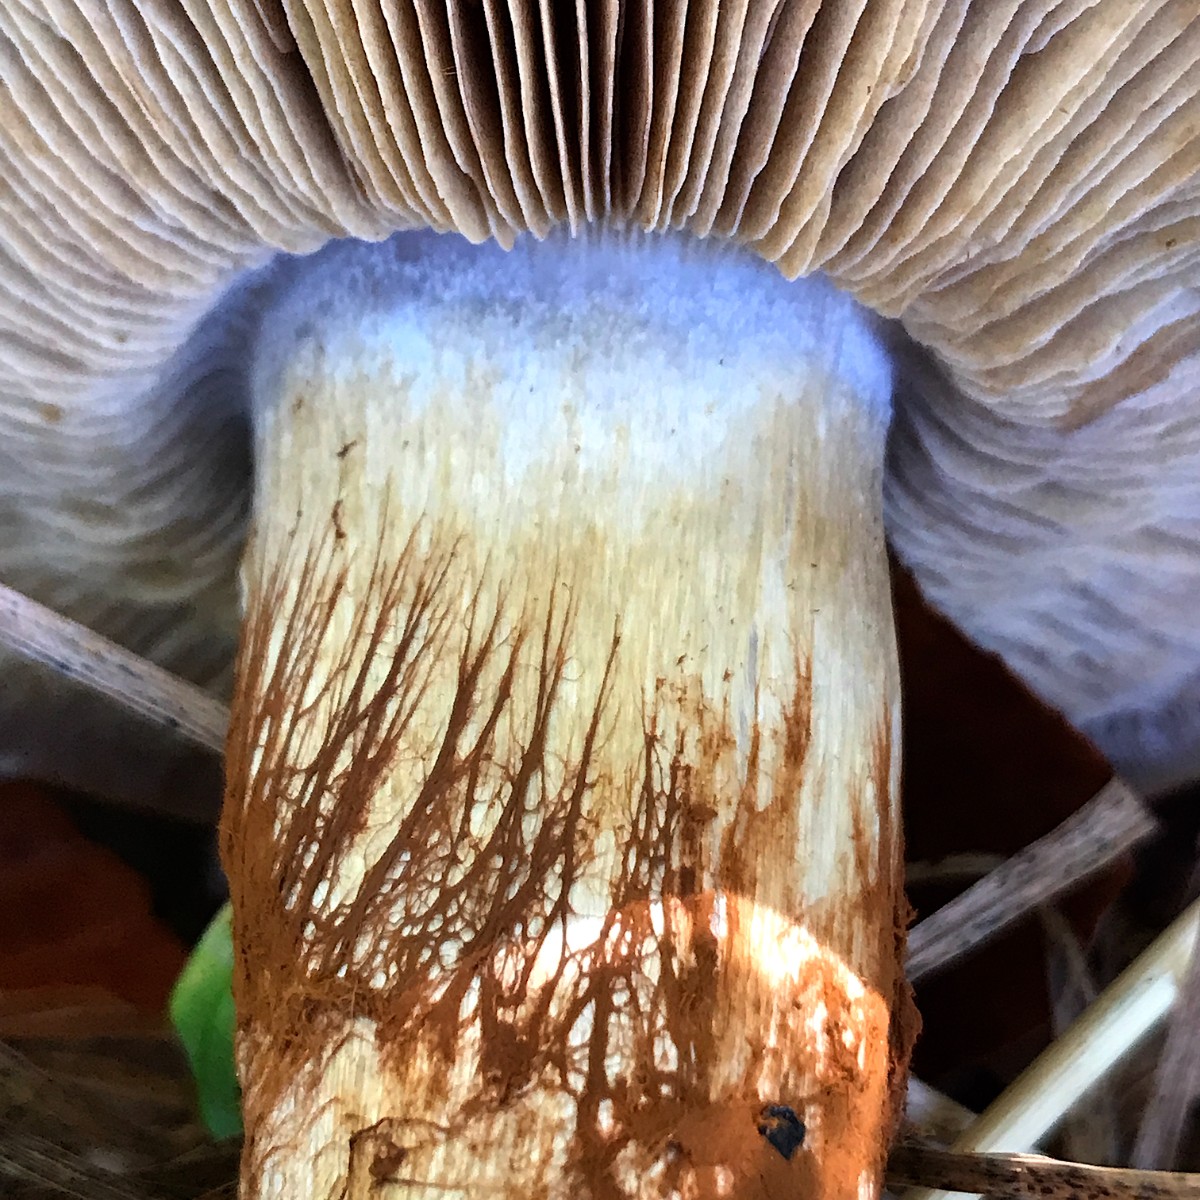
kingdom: Fungi
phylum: Basidiomycota
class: Agaricomycetes
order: Agaricales
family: Cortinariaceae
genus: Cortinarius
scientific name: Cortinarius anserinus
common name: bøge-slørhat
